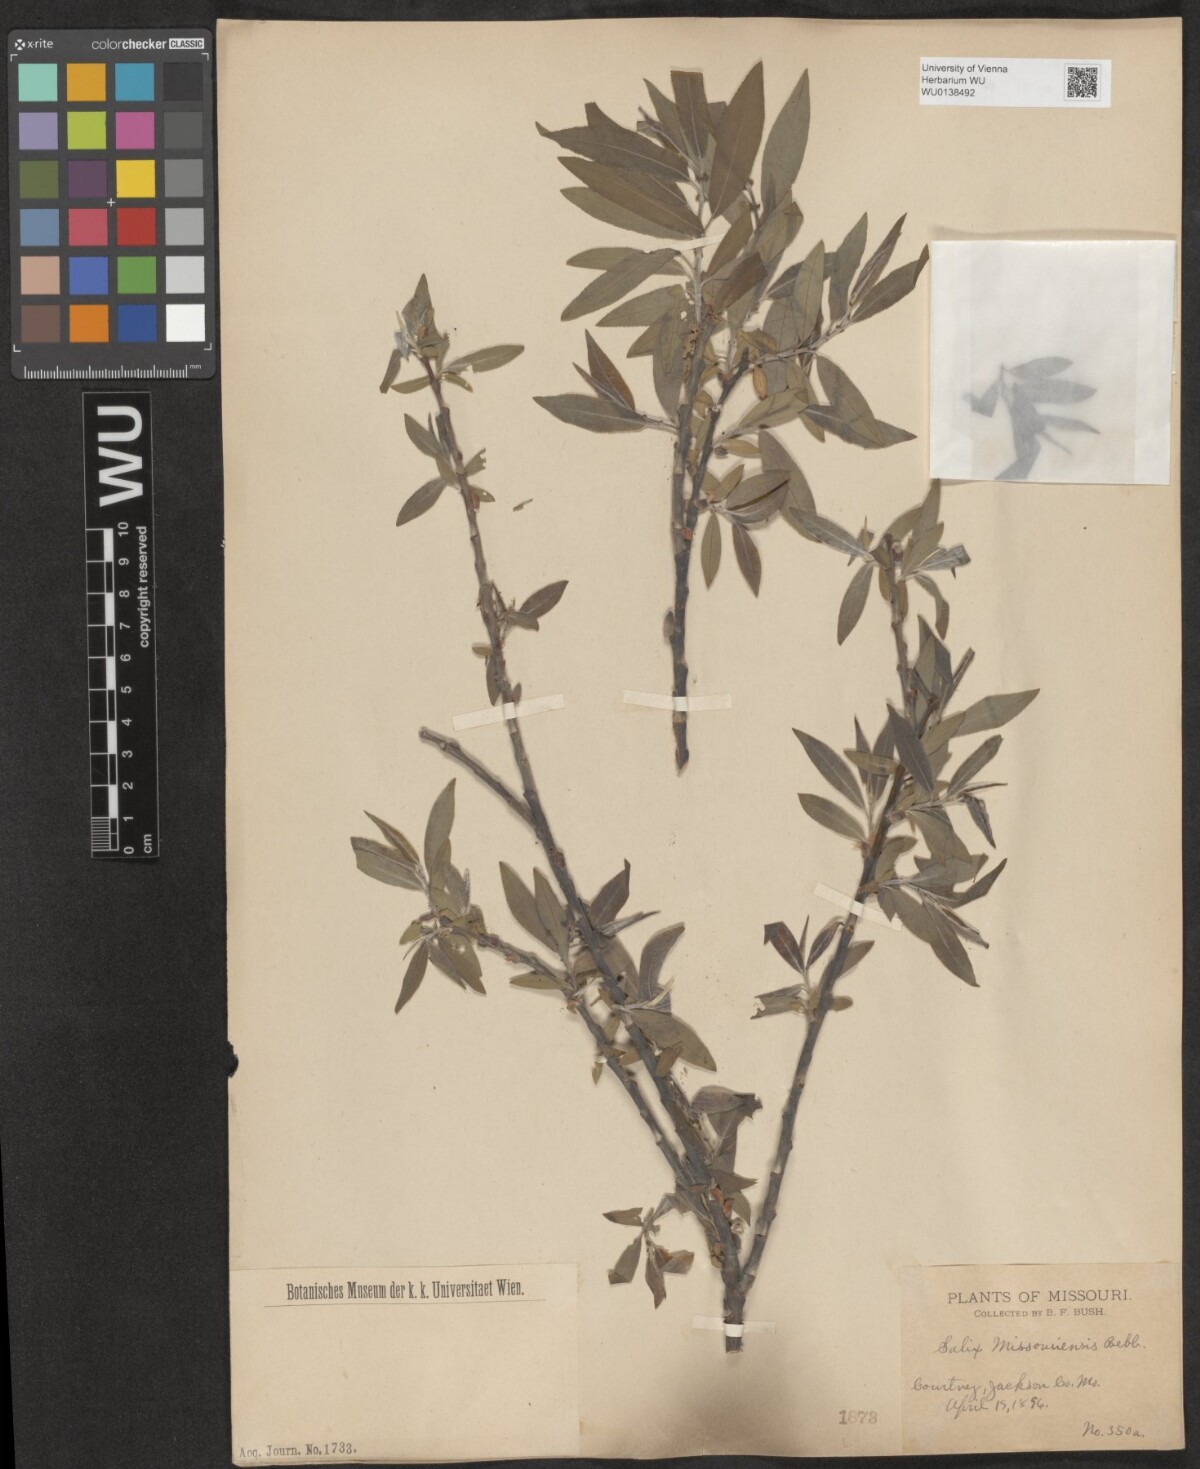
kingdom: Plantae
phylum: Tracheophyta
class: Magnoliopsida
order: Malpighiales
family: Salicaceae
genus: Salix
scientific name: Salix eriocephala
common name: Heart-leaved willow
